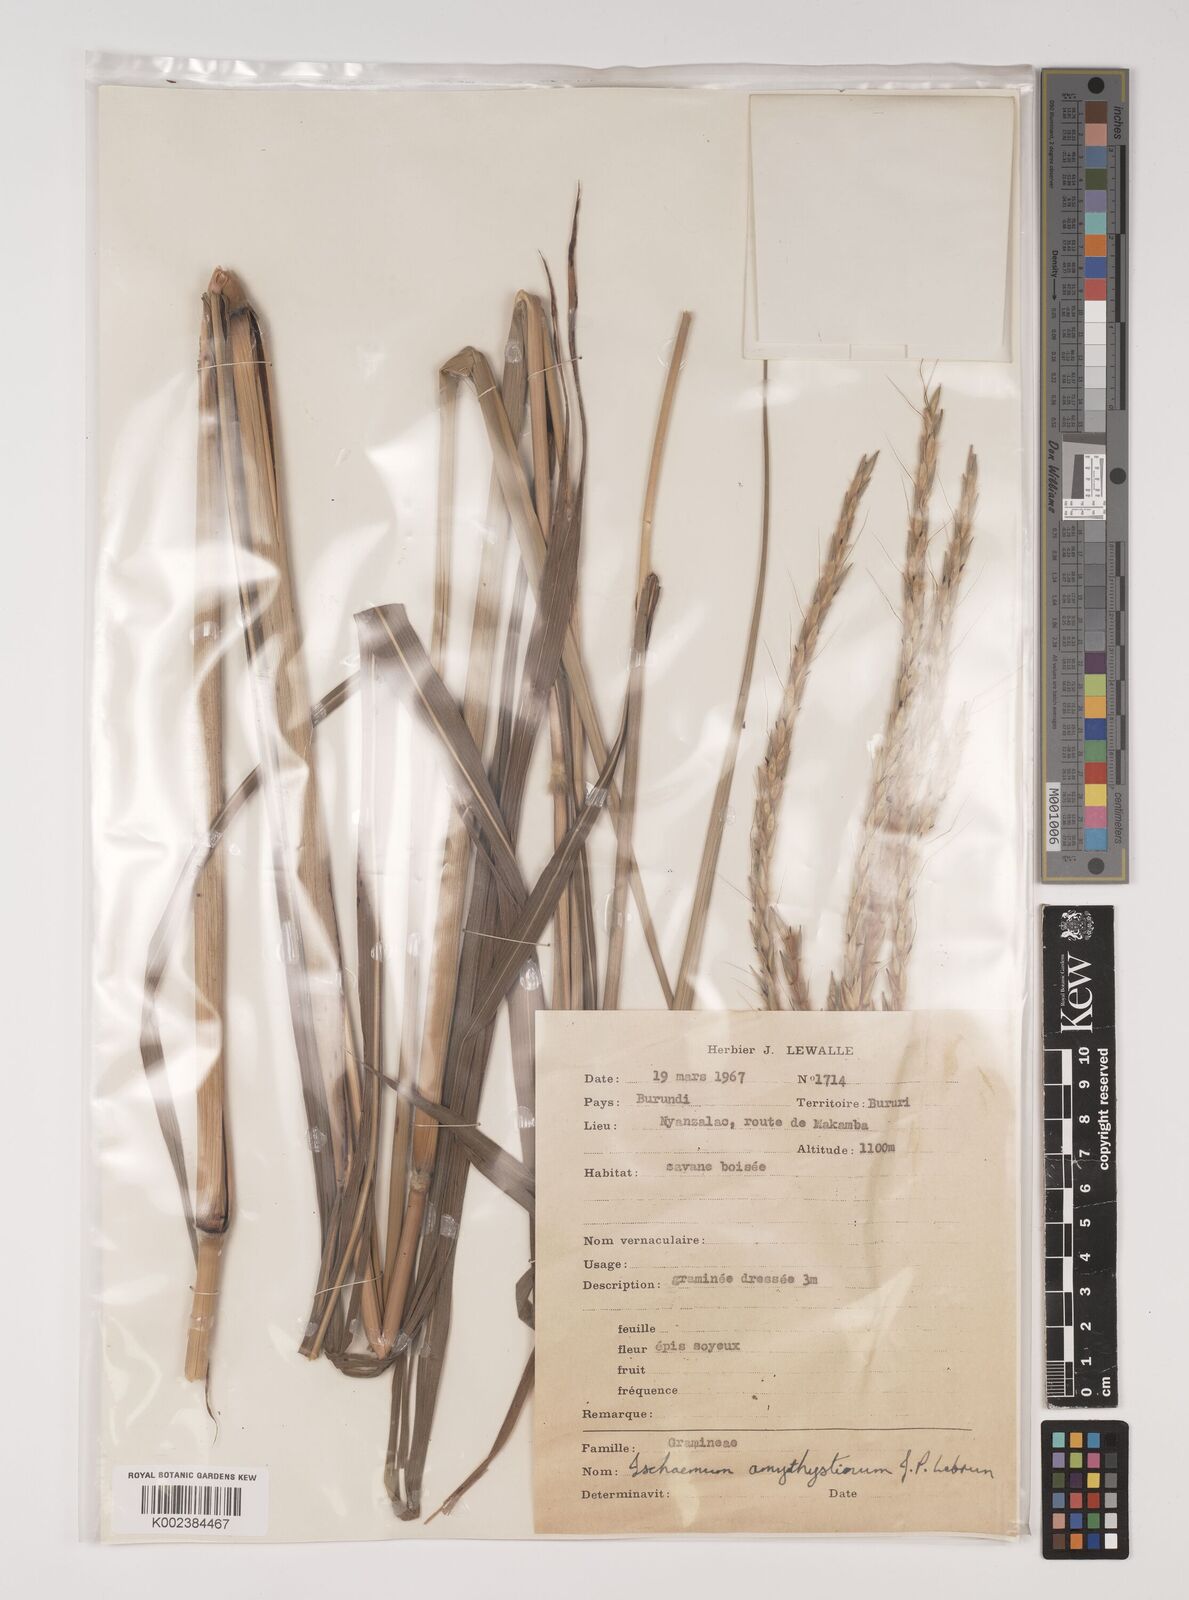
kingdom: Plantae
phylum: Tracheophyta
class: Liliopsida
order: Poales
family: Poaceae
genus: Ischaemum
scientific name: Ischaemum amethystinum
